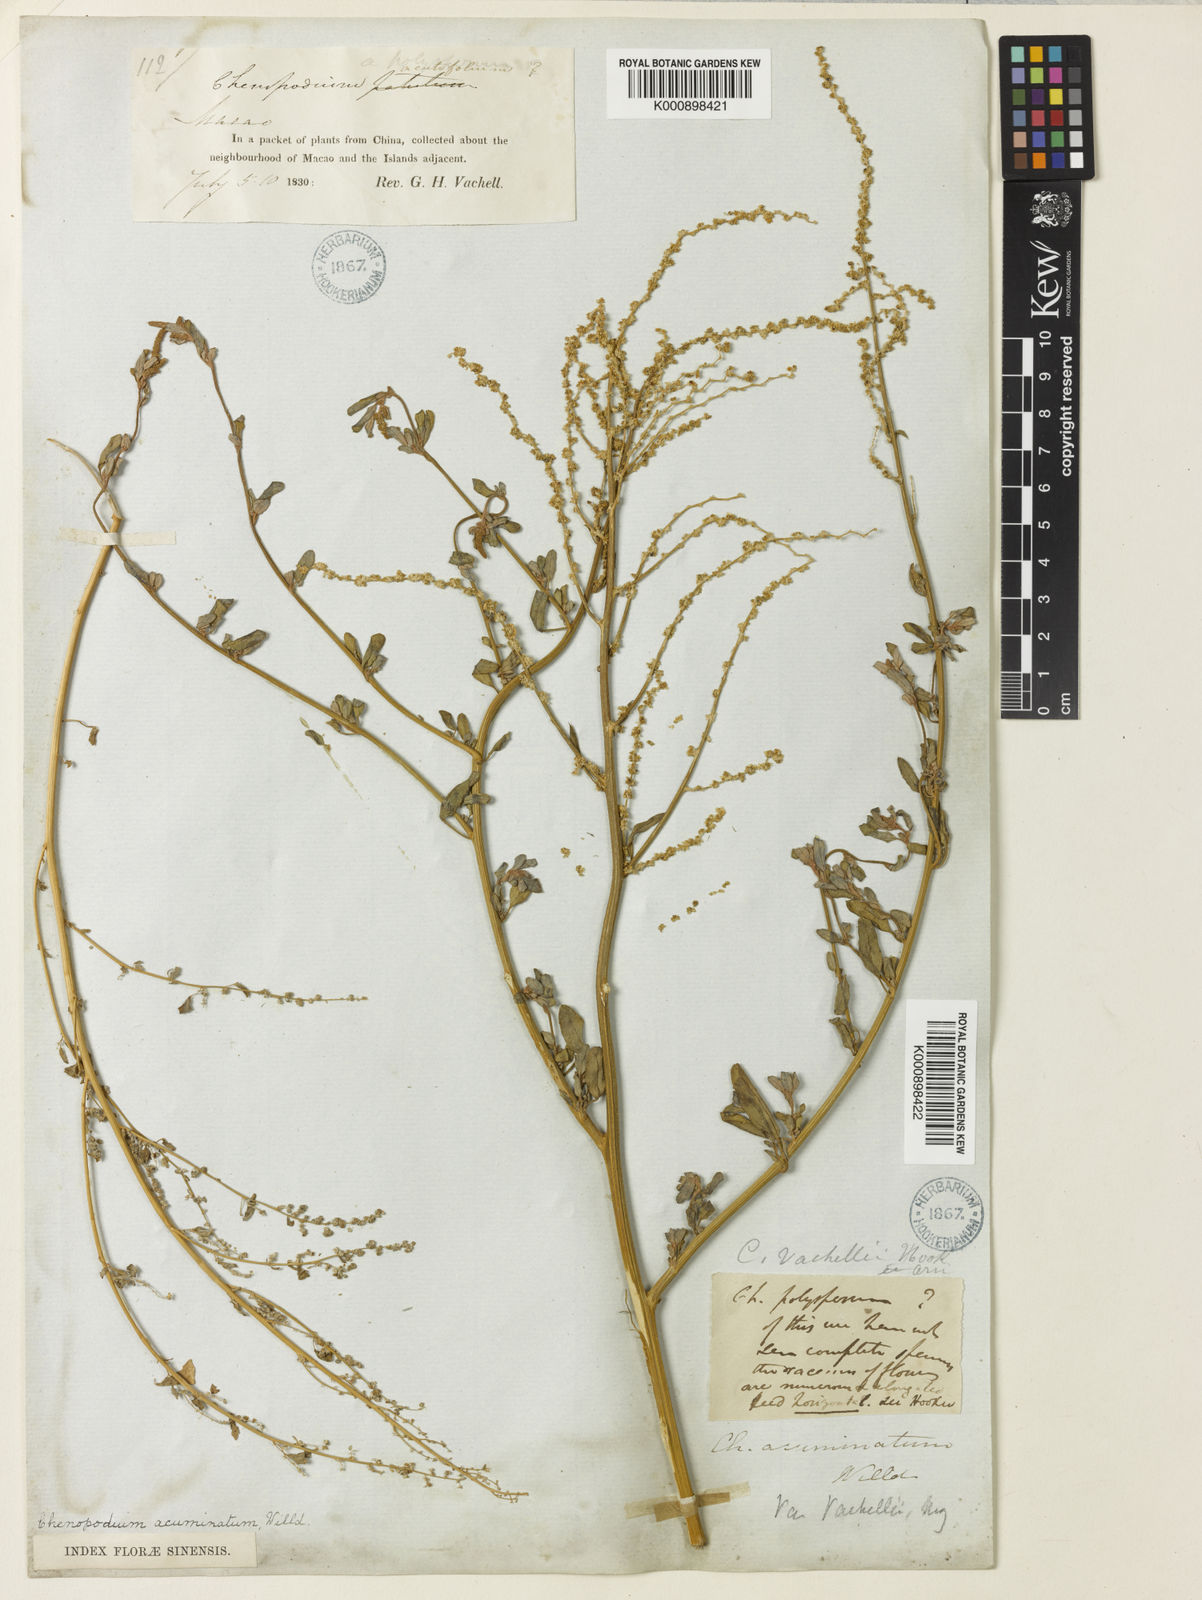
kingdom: Plantae
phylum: Tracheophyta
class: Magnoliopsida
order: Caryophyllales
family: Amaranthaceae
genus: Chenopodium
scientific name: Chenopodium acuminatum
